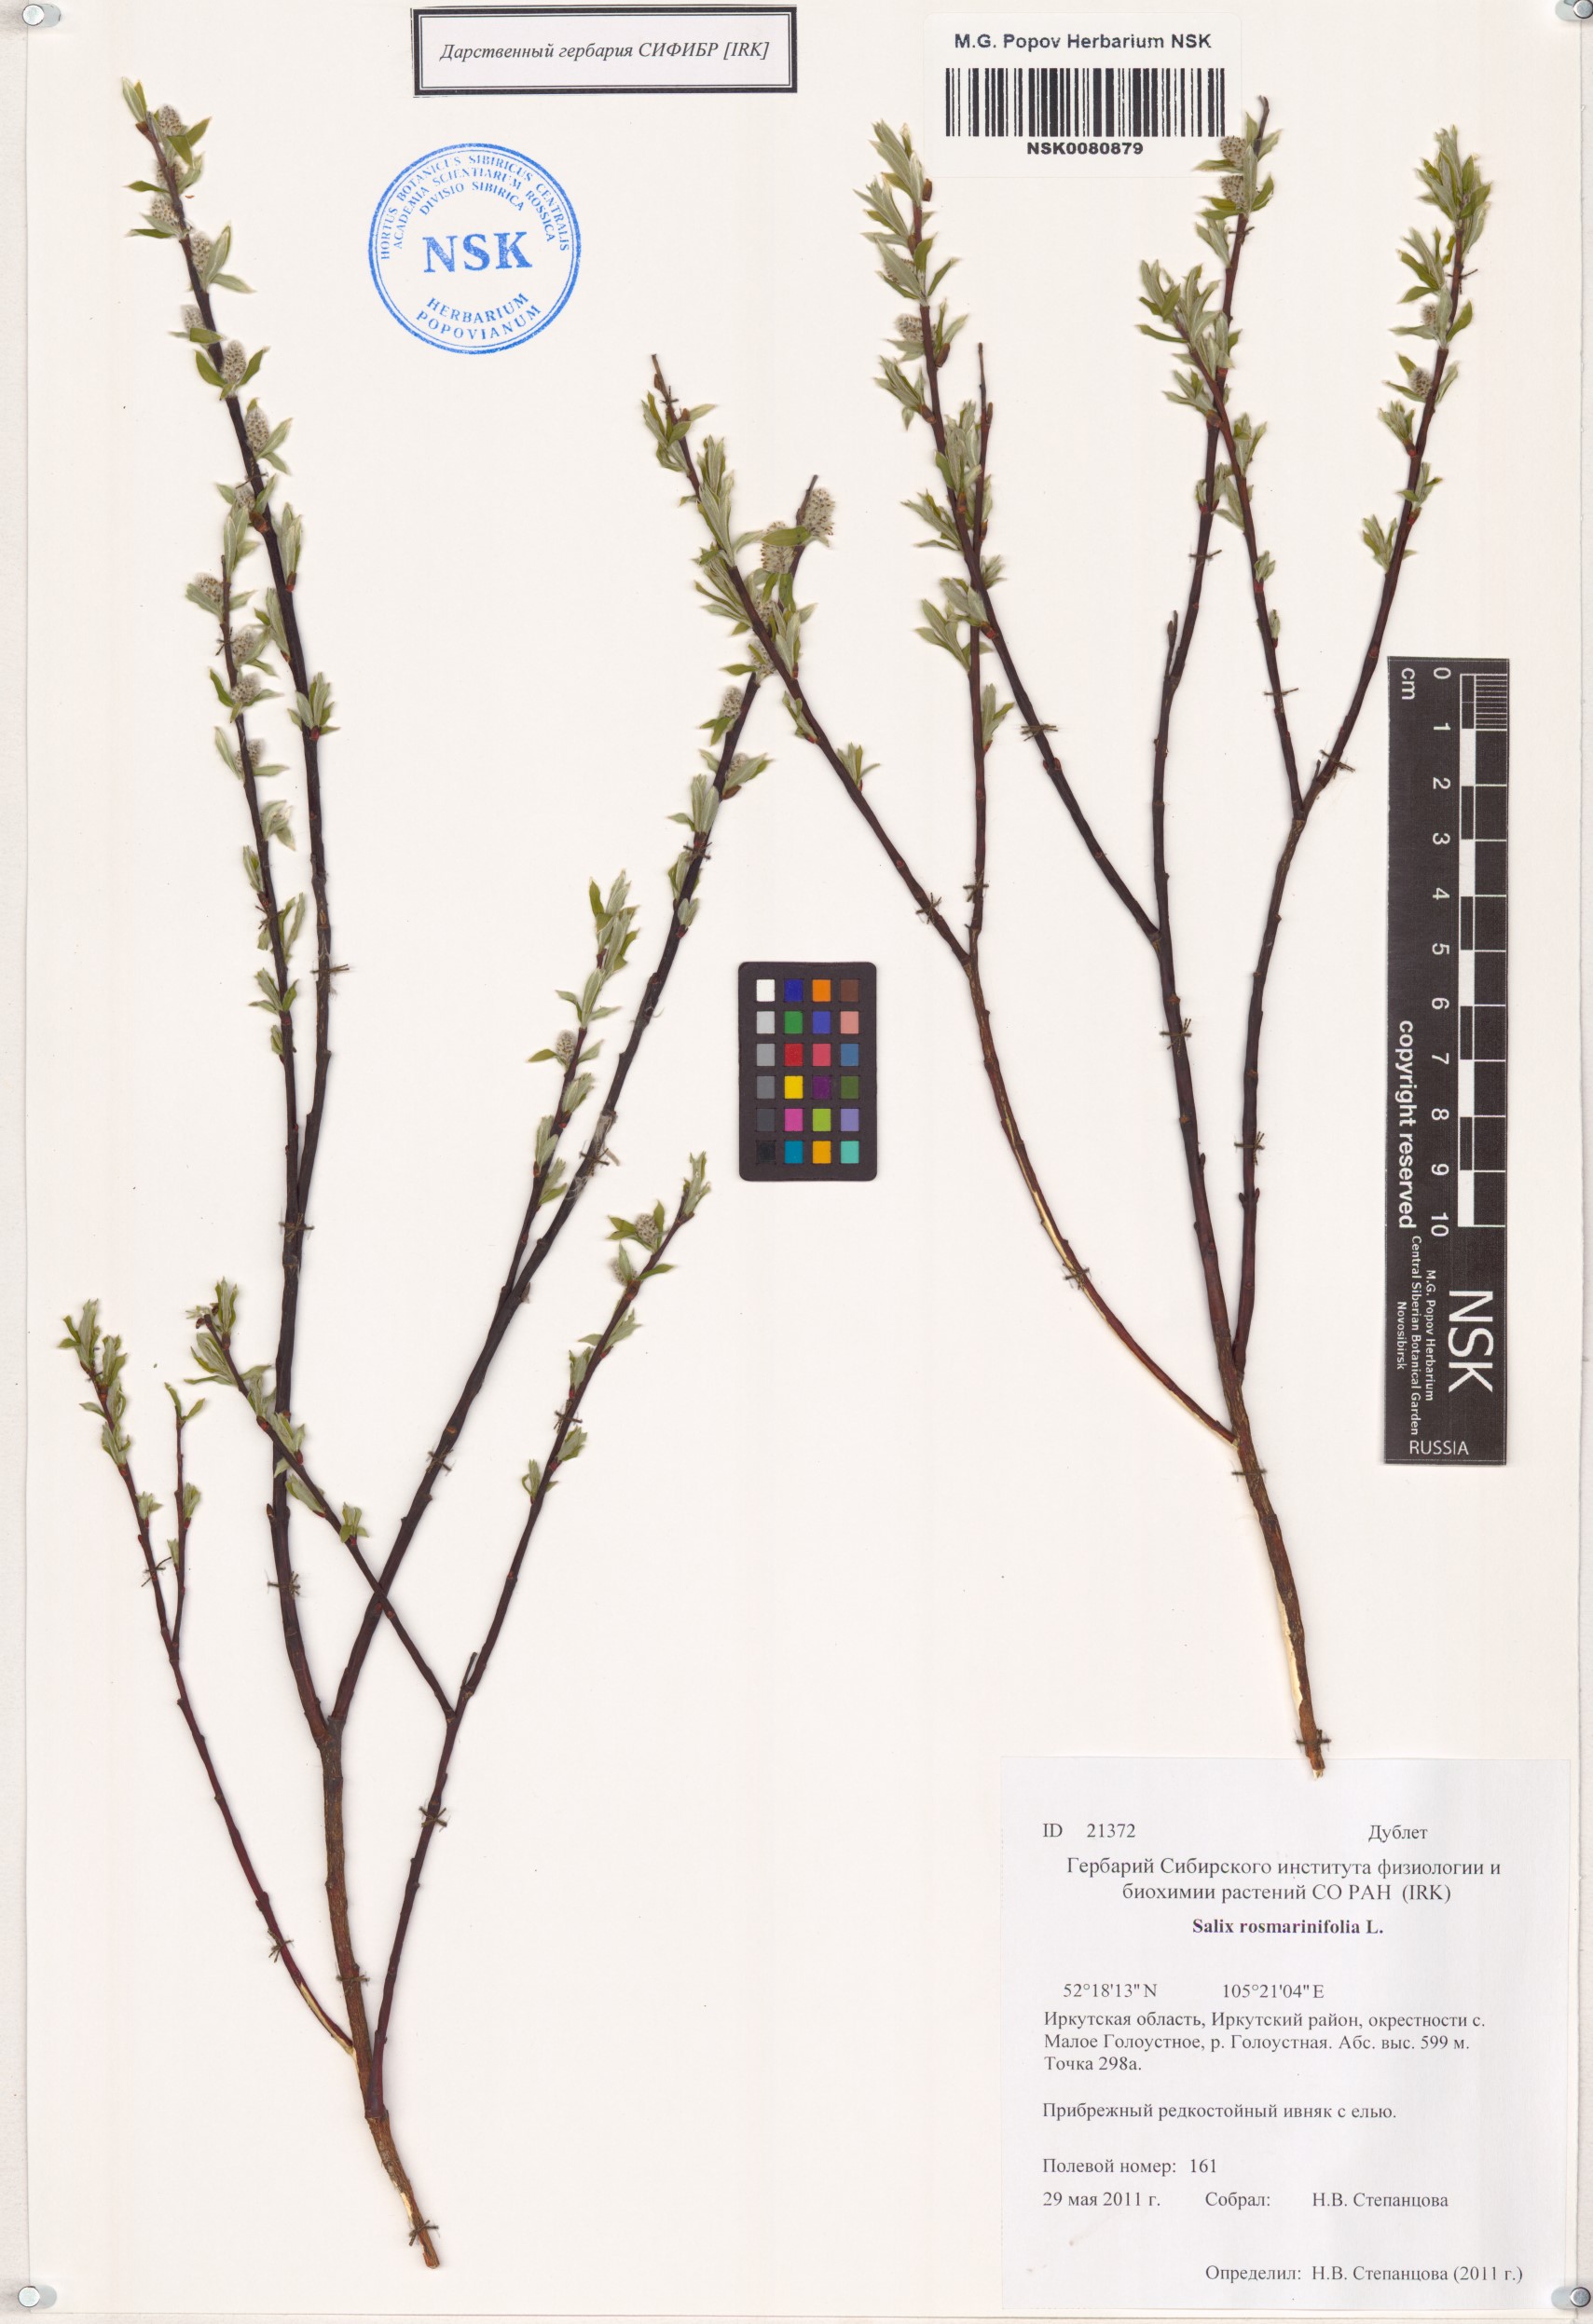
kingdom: Plantae
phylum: Tracheophyta
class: Magnoliopsida
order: Malpighiales
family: Salicaceae
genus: Salix
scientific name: Salix rosmarinifolia
